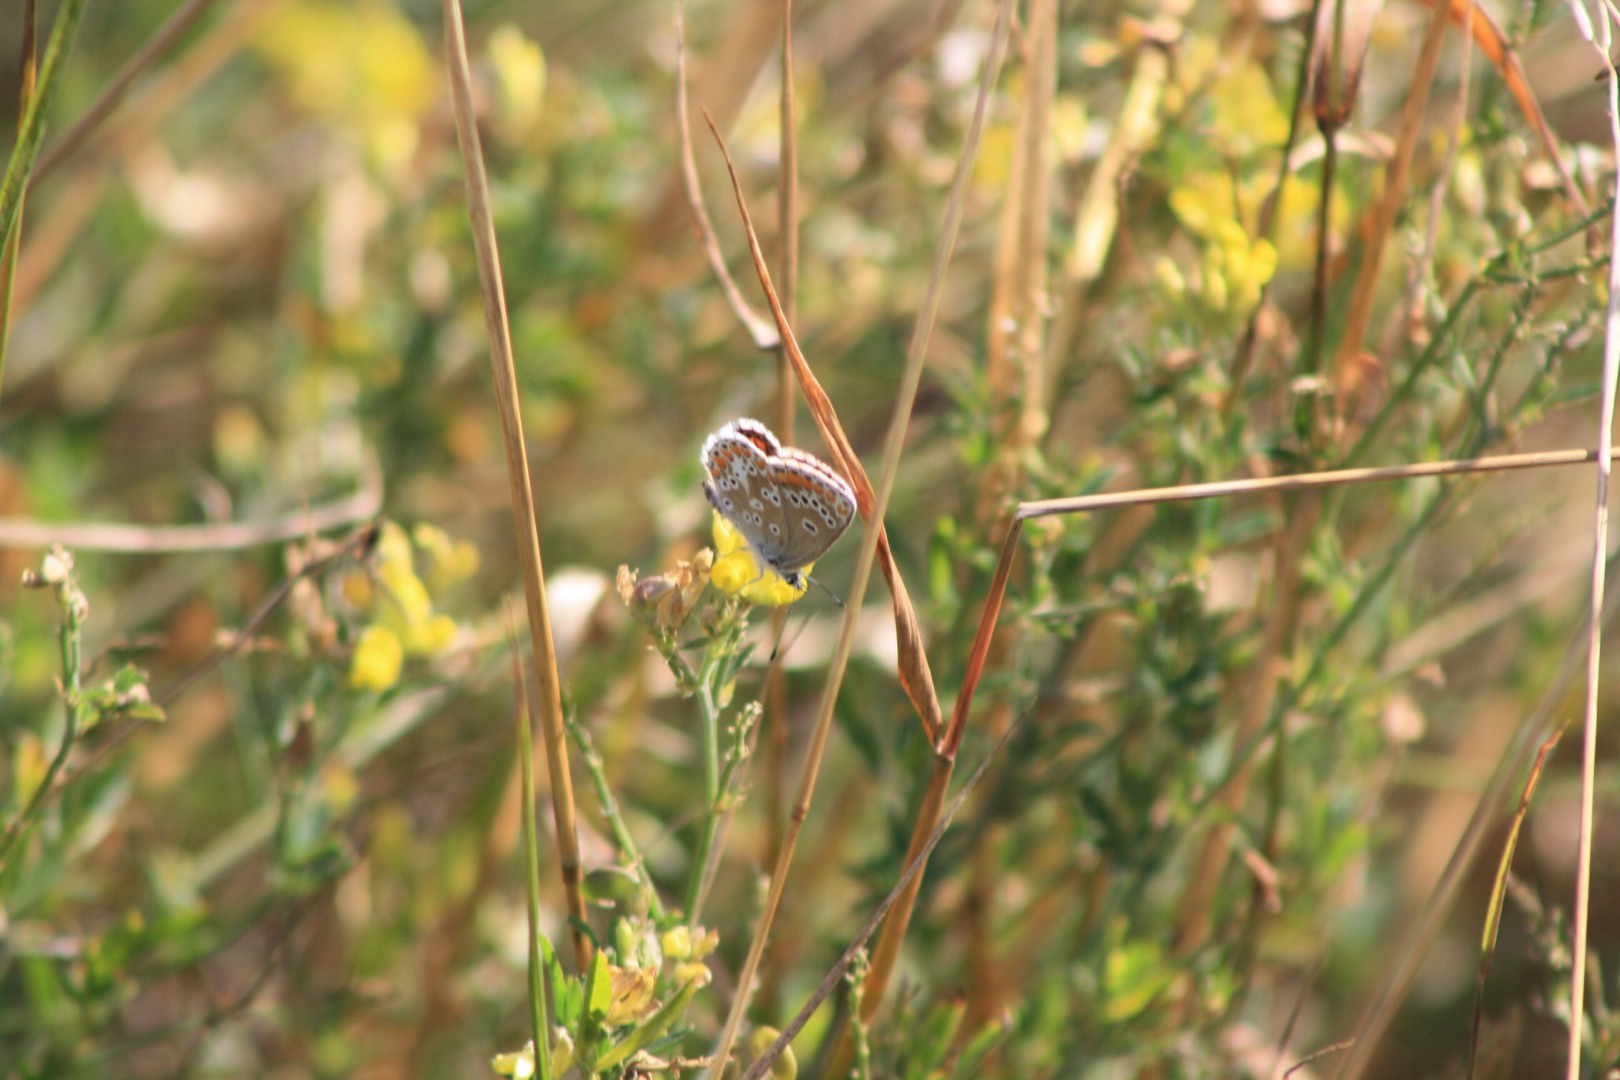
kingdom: Animalia
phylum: Arthropoda
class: Insecta
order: Lepidoptera
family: Lycaenidae
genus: Aricia
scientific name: Aricia agestis
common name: Rødplettet blåfugl
